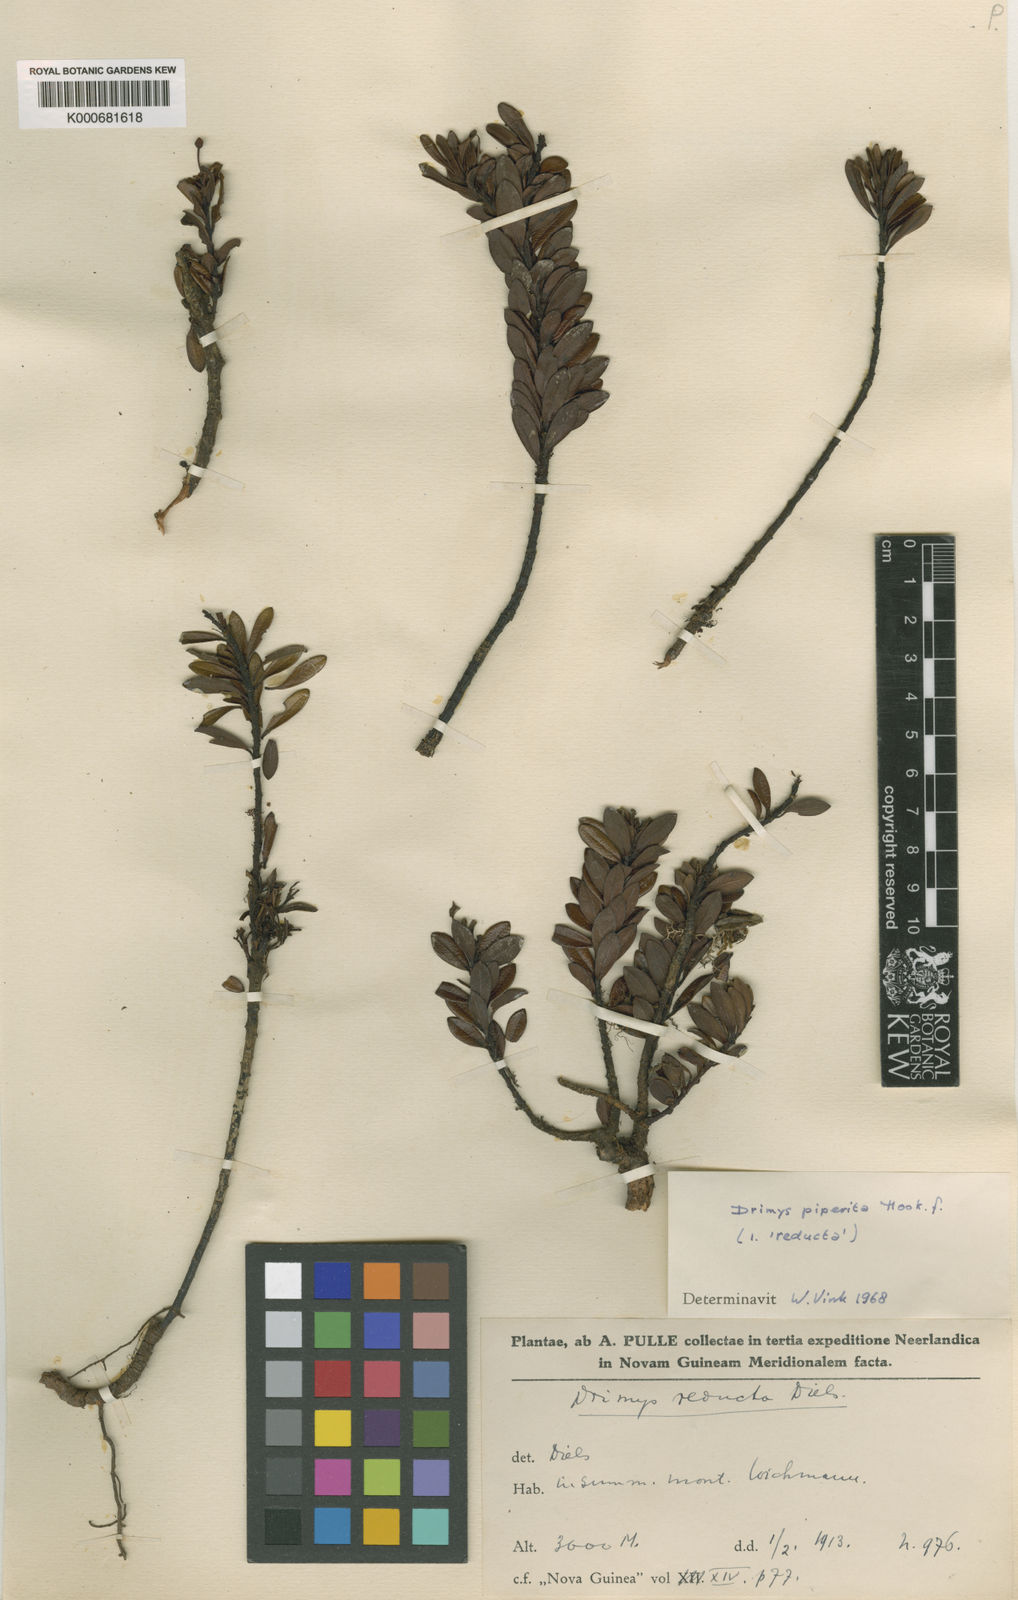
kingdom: Plantae
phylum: Tracheophyta
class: Magnoliopsida
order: Canellales
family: Winteraceae
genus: Drimys
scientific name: Drimys piperita
